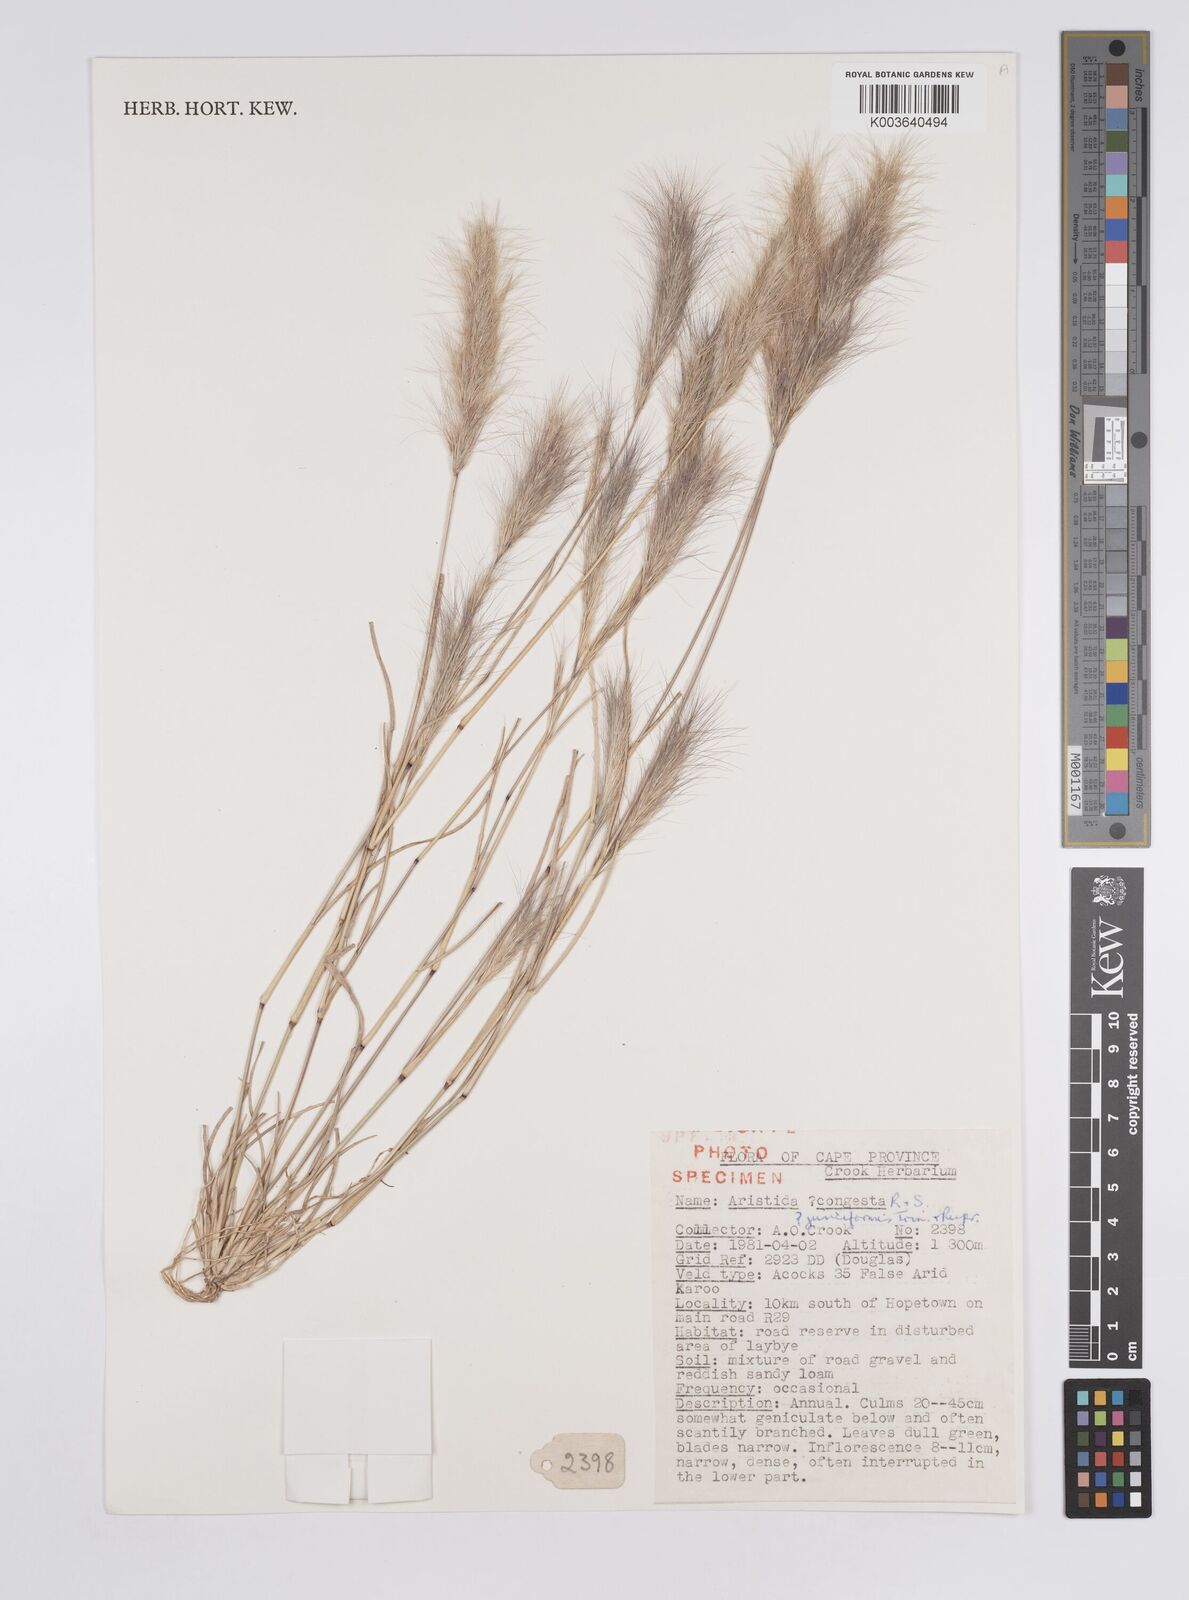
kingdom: Plantae
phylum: Tracheophyta
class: Liliopsida
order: Poales
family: Poaceae
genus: Aristida
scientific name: Aristida
